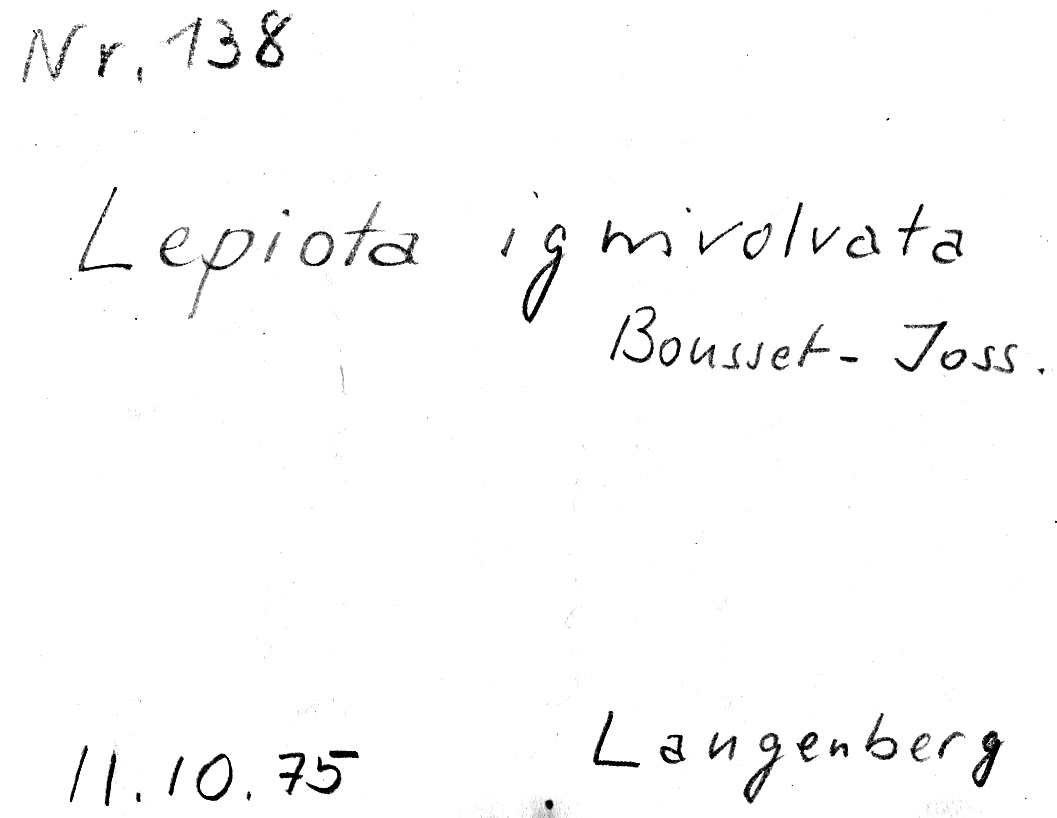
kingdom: Fungi
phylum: Basidiomycota
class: Agaricomycetes
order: Agaricales
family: Agaricaceae
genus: Lepiota
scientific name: Lepiota ignivolvata
